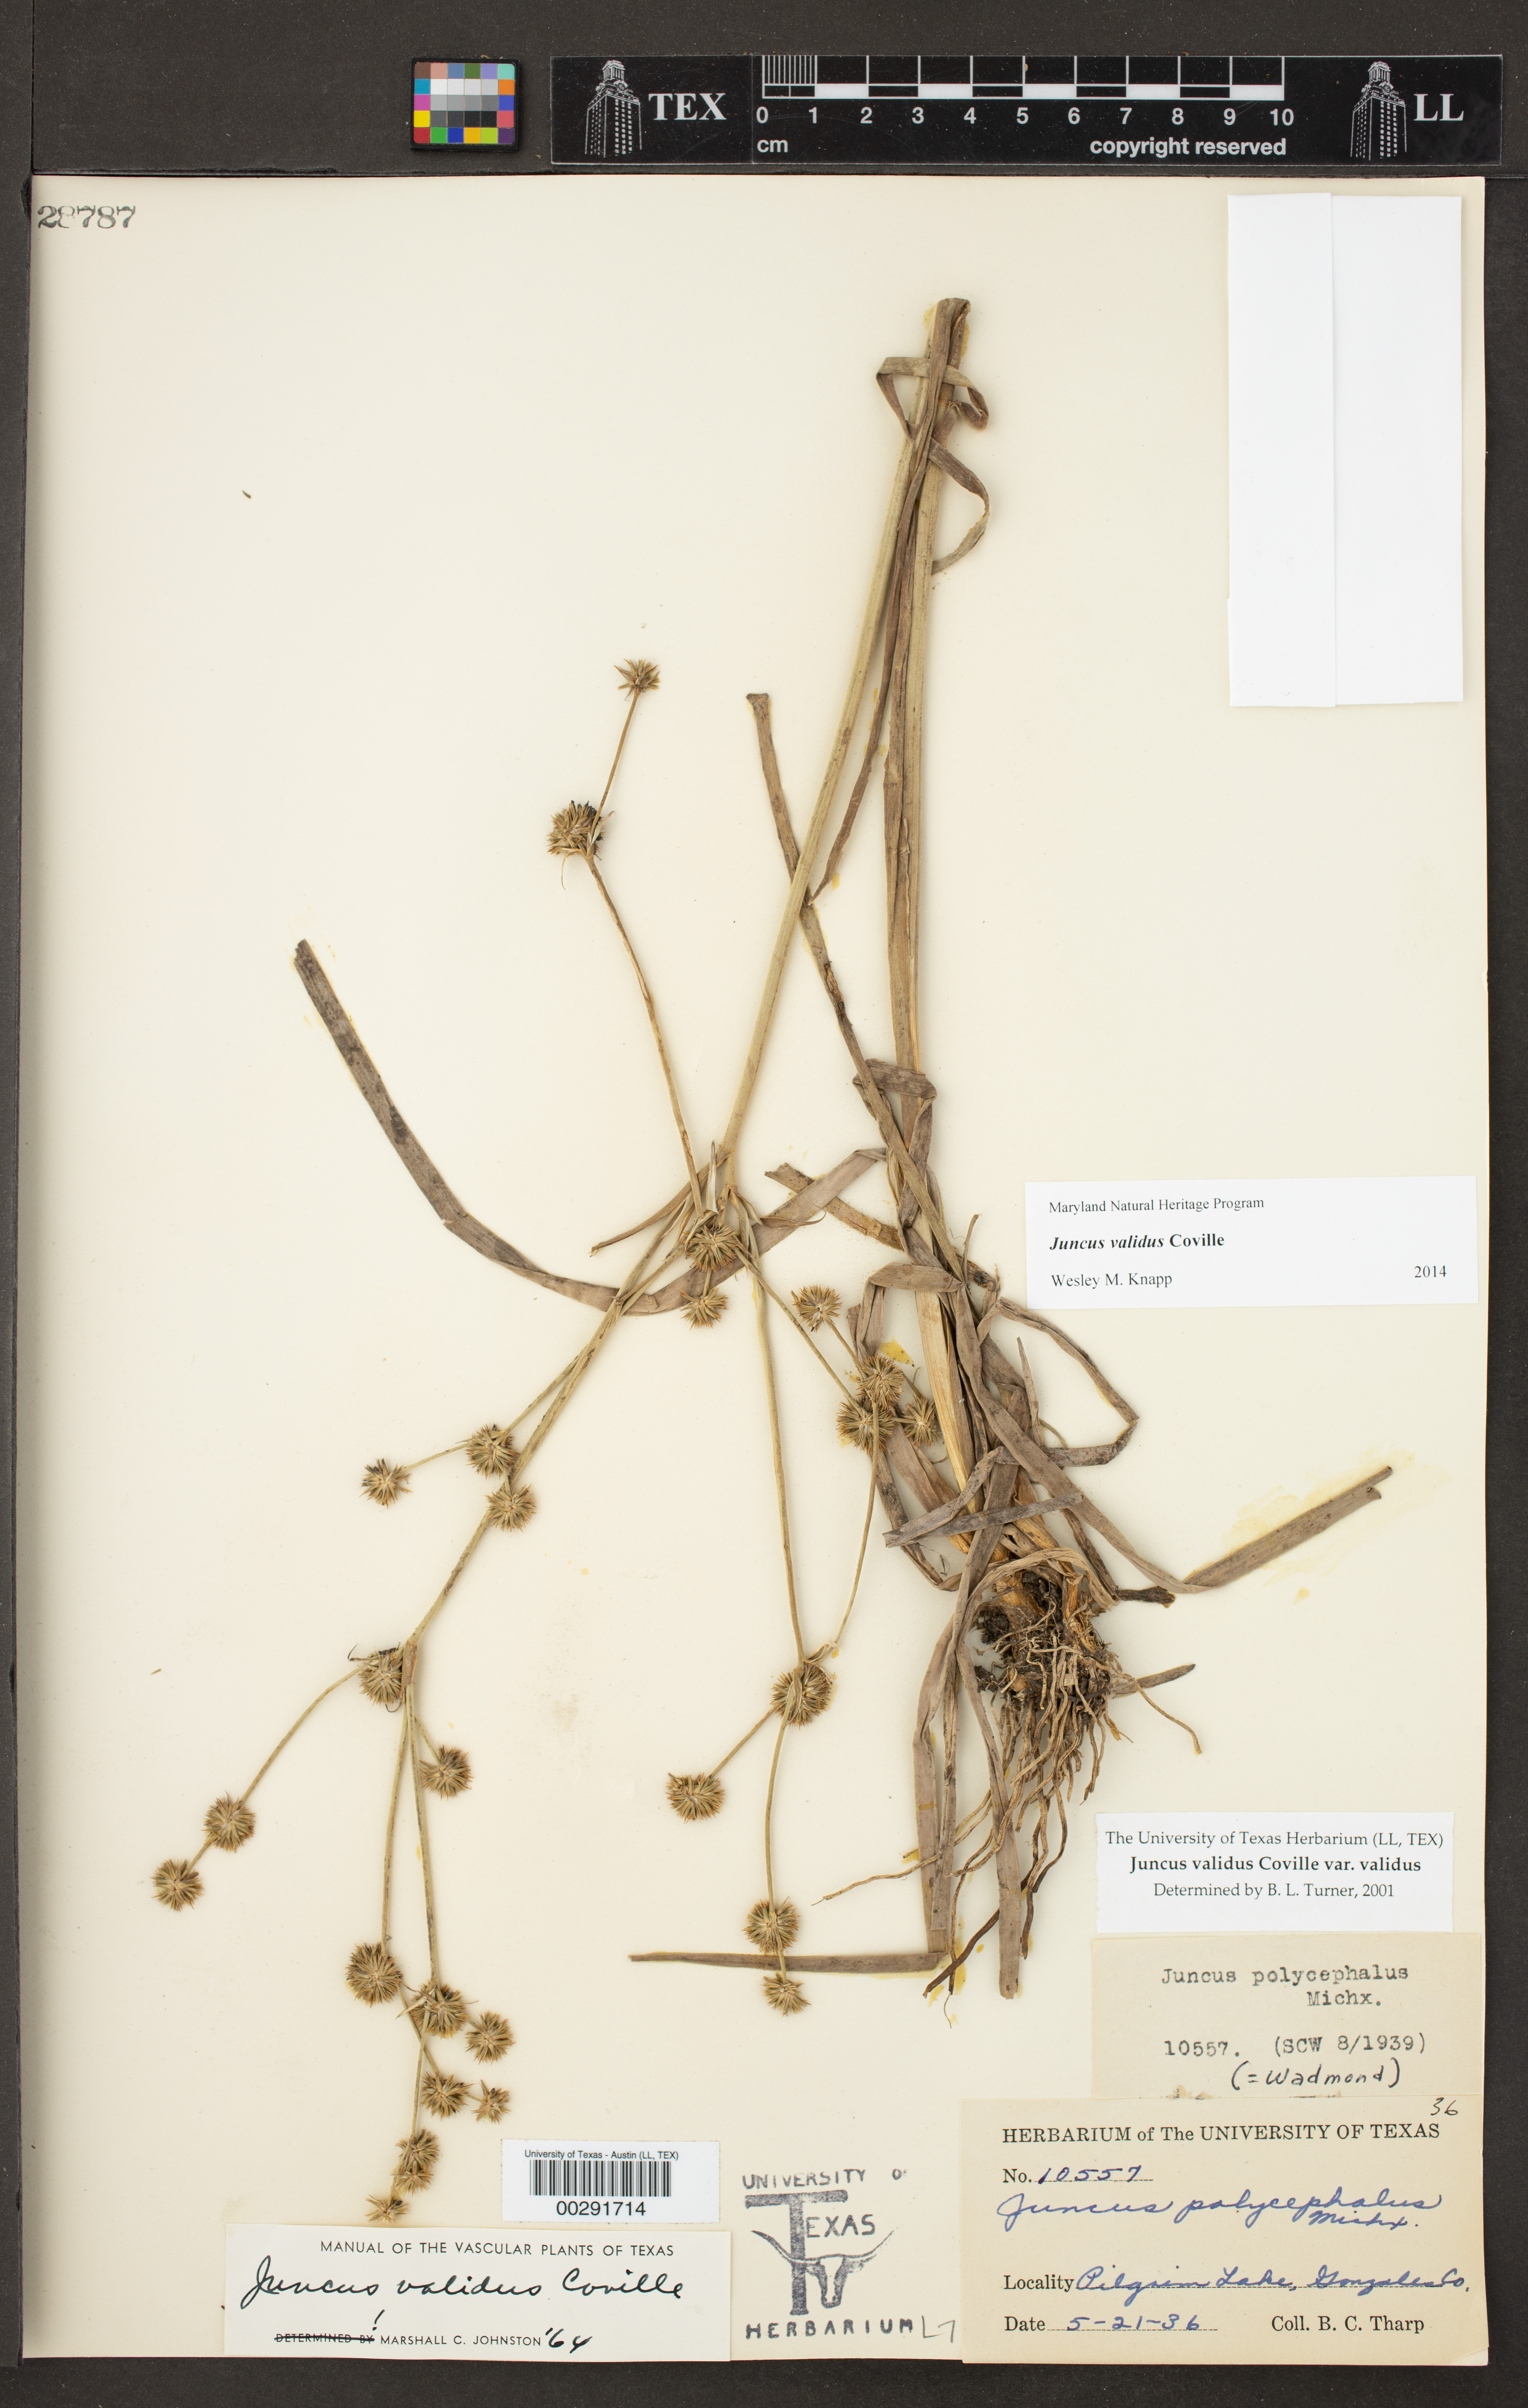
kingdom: Plantae
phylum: Tracheophyta
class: Liliopsida
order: Poales
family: Juncaceae
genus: Juncus
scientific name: Juncus validus
